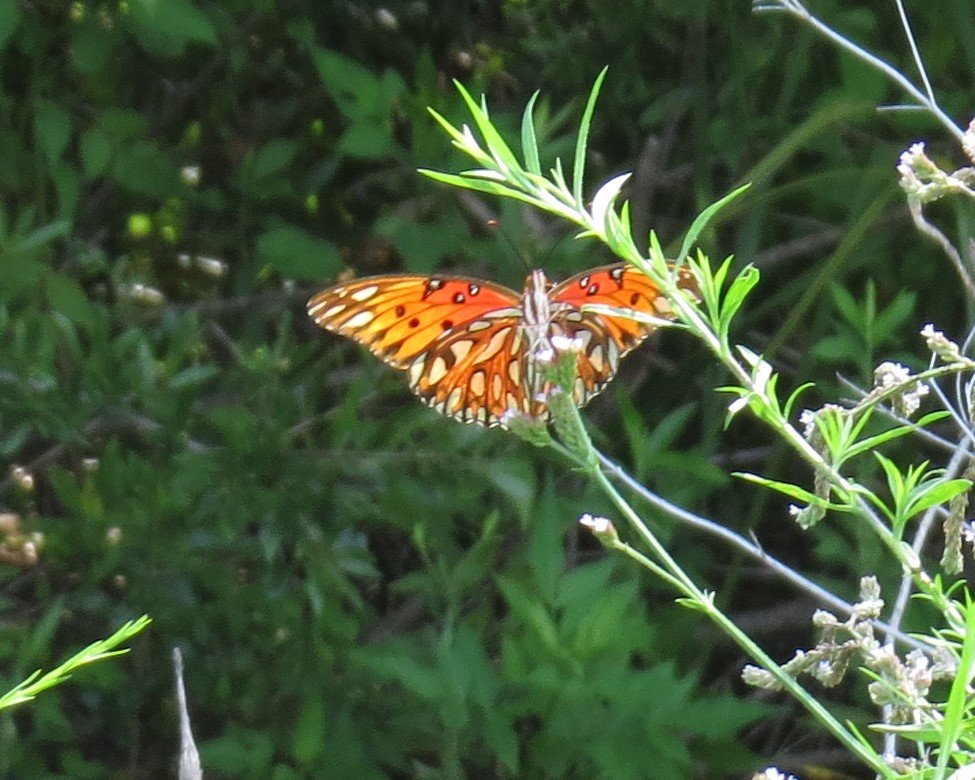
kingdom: Animalia
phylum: Arthropoda
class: Insecta
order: Lepidoptera
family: Nymphalidae
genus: Dione
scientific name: Dione vanillae
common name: Gulf Fritillary
